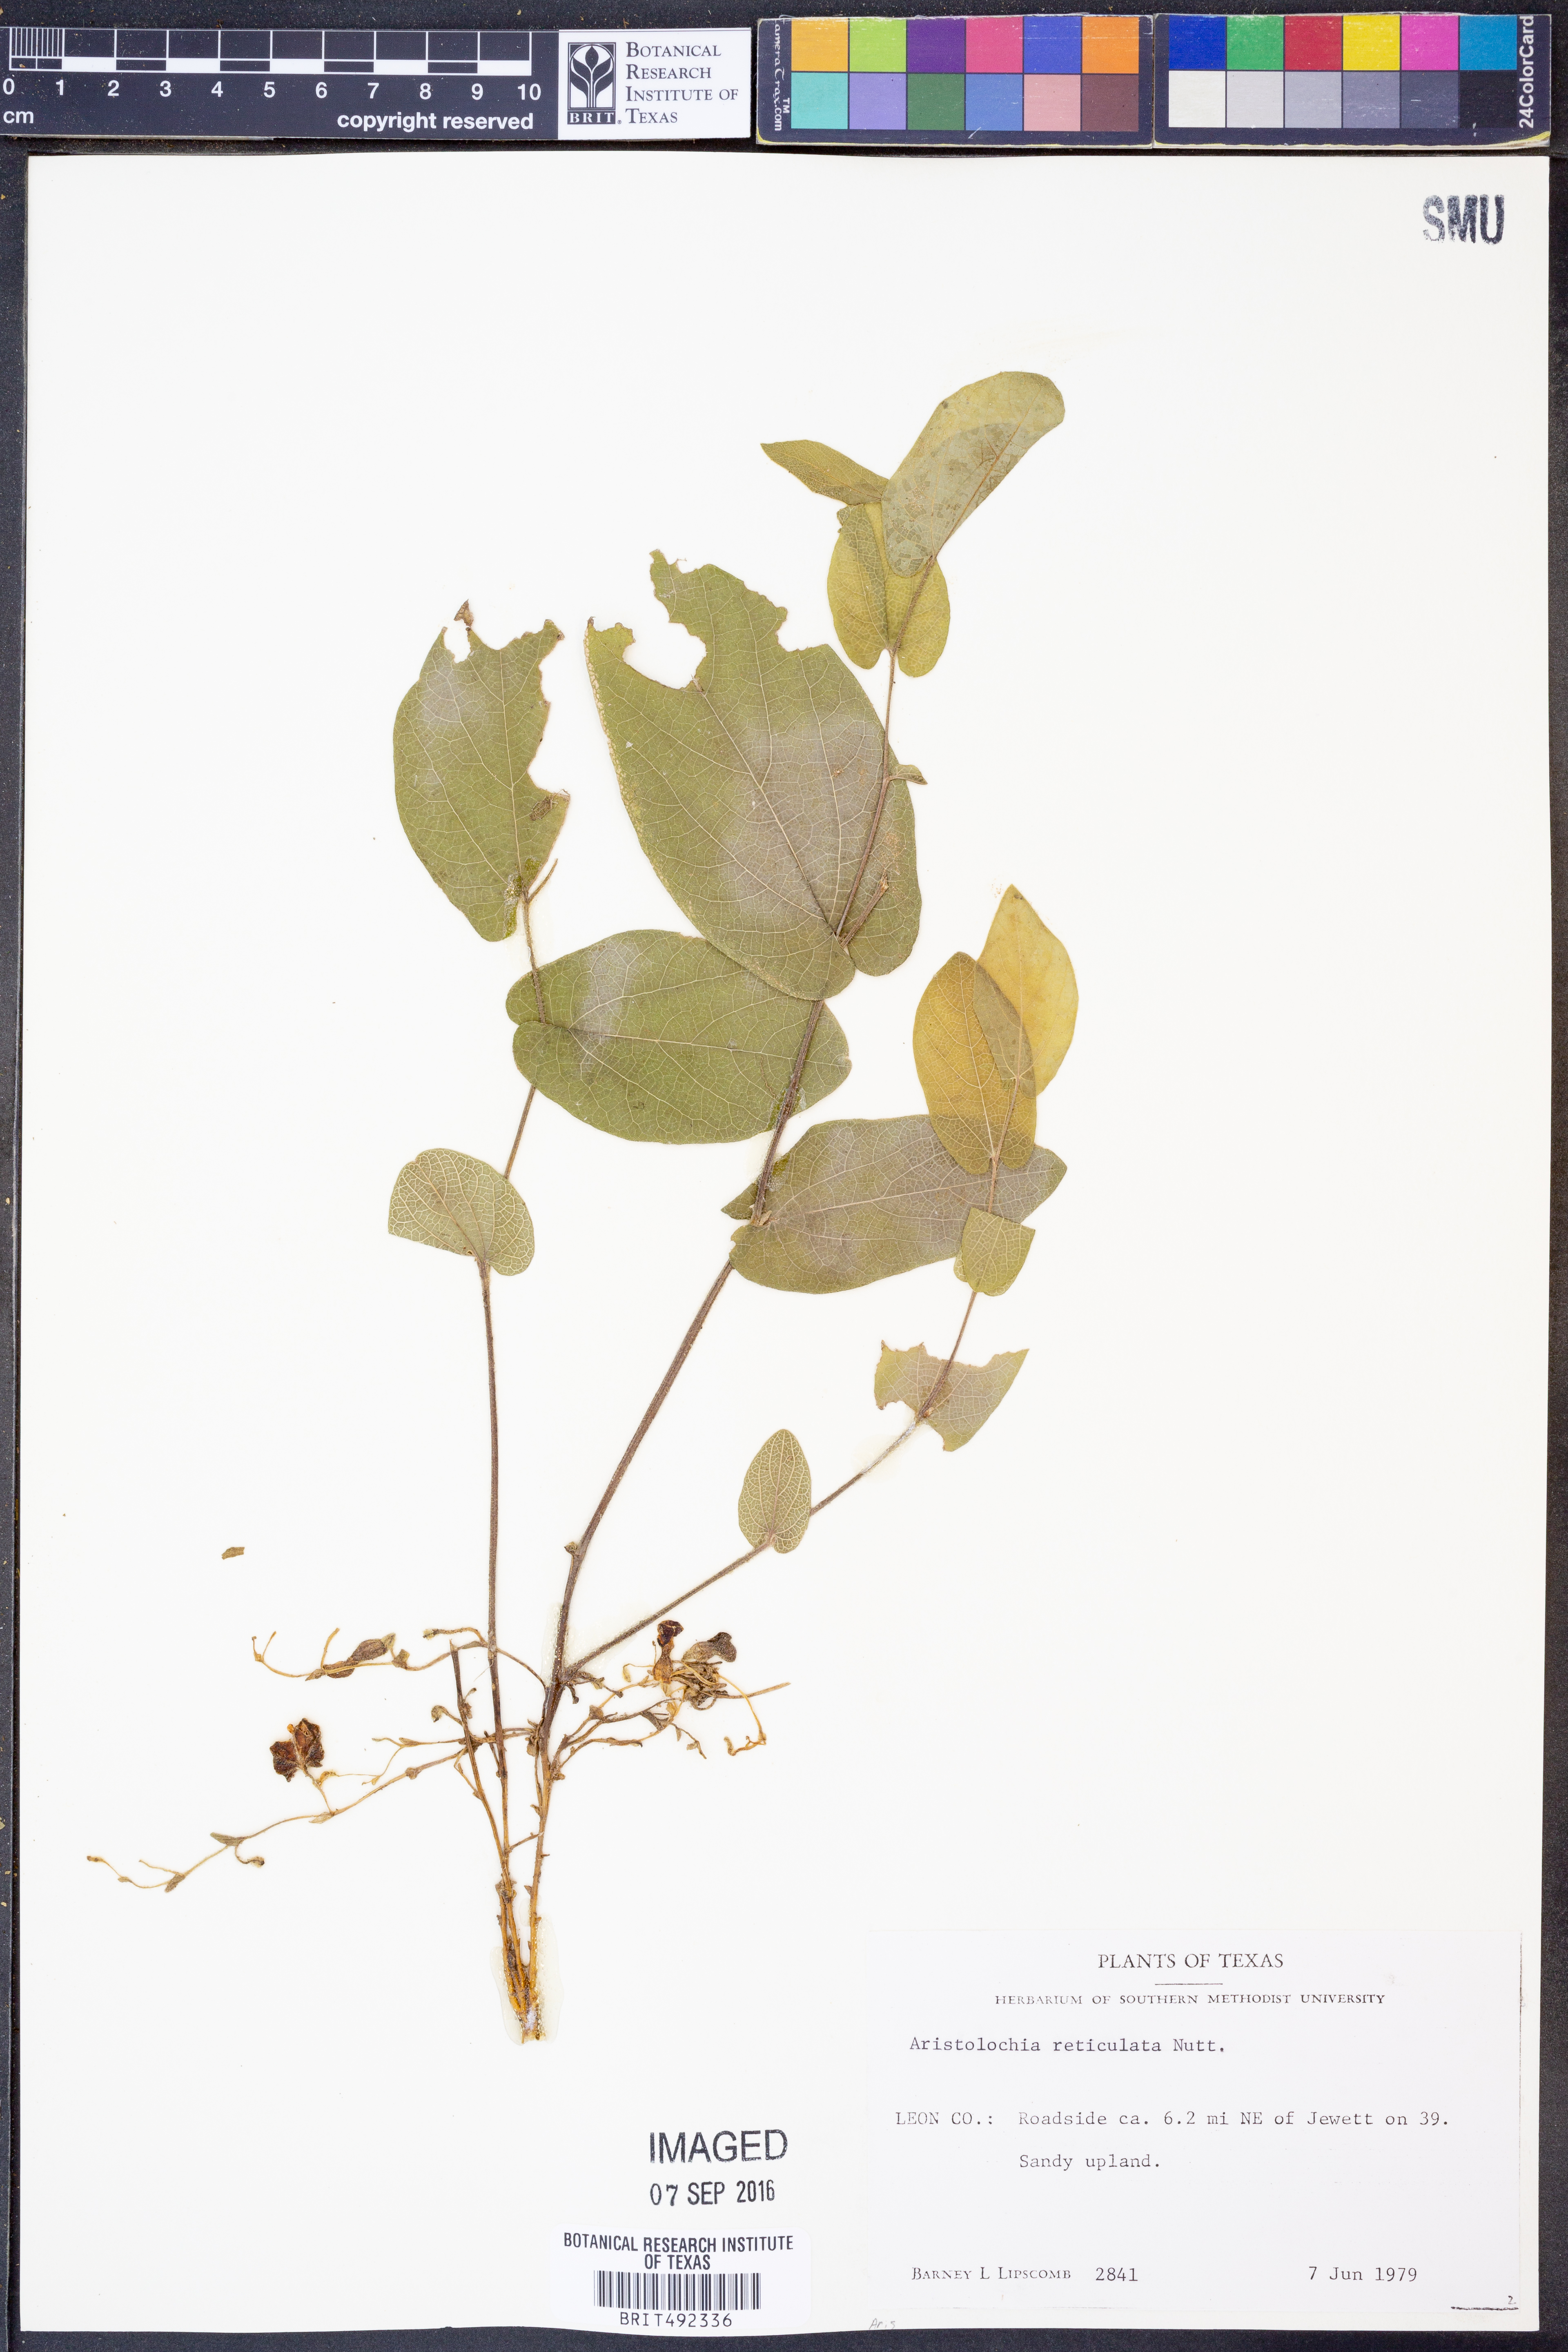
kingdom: Plantae
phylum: Tracheophyta
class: Magnoliopsida
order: Piperales
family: Aristolochiaceae
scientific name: Aristolochiaceae
